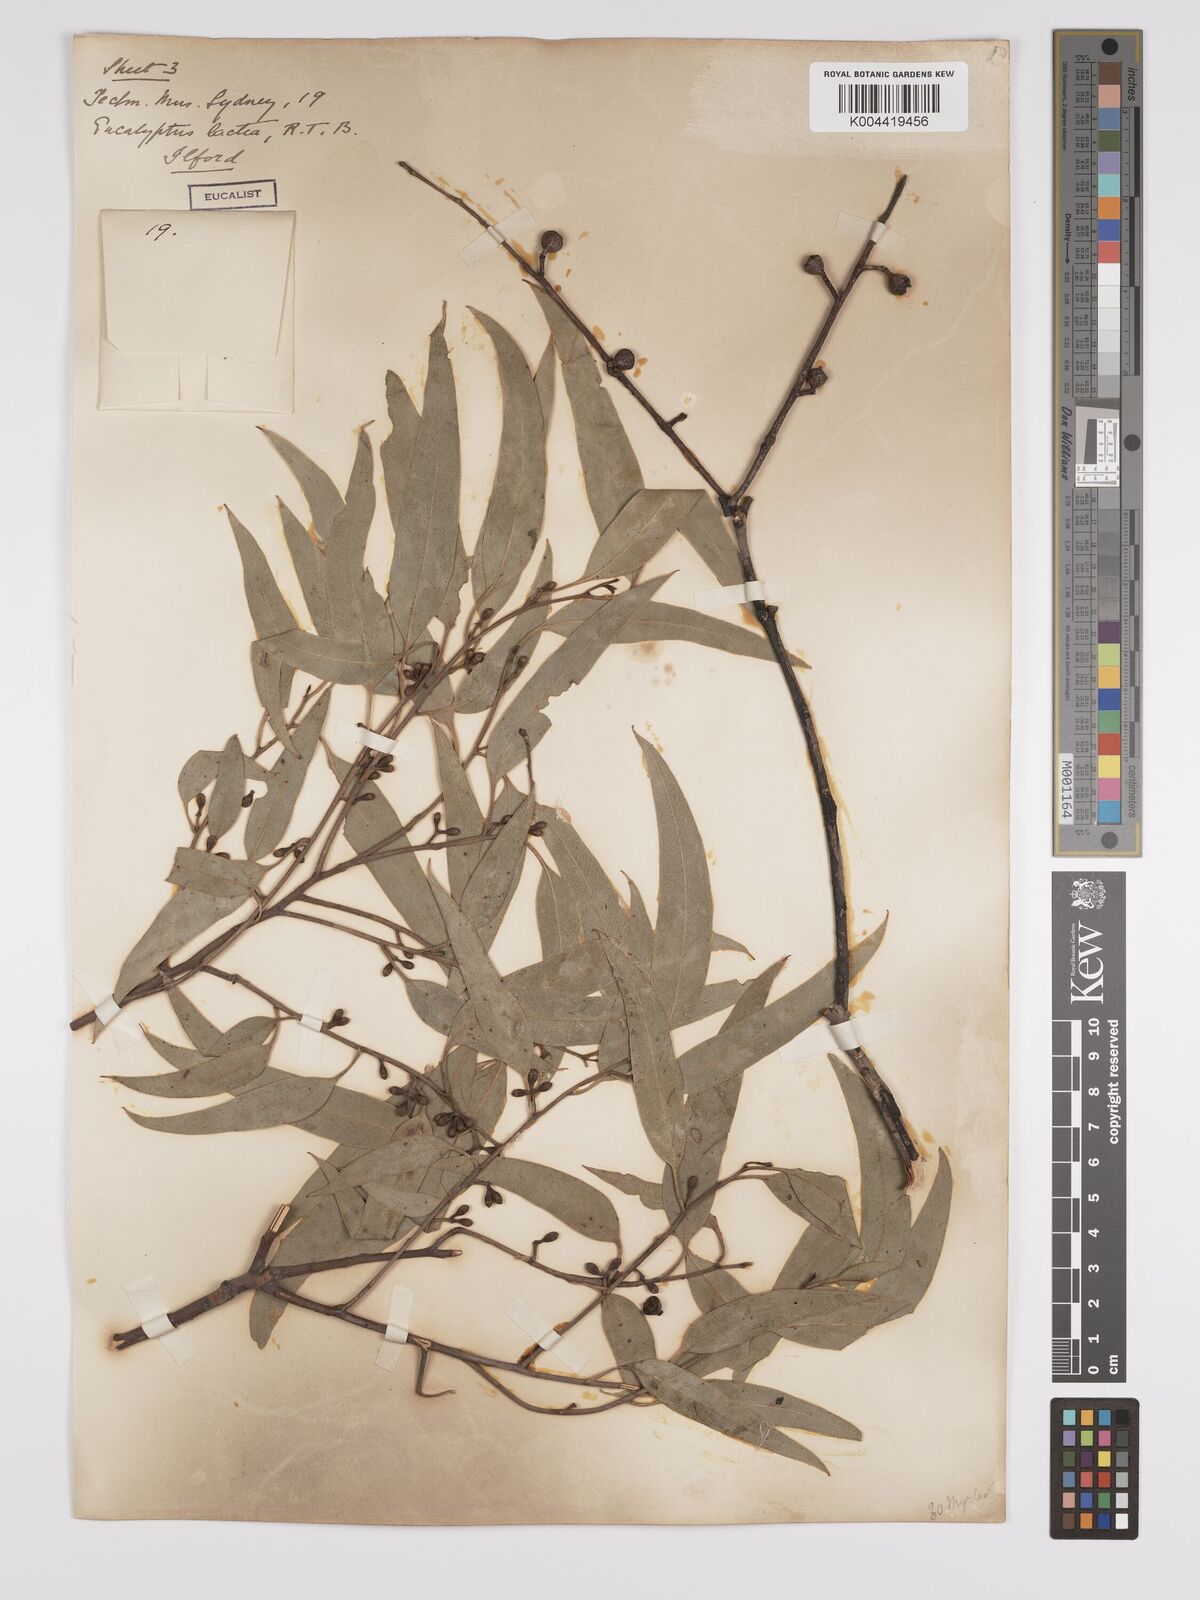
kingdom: Plantae
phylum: Tracheophyta
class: Magnoliopsida
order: Myrtales
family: Myrtaceae
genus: Eucalyptus
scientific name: Eucalyptus mannifera
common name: Manna gum
